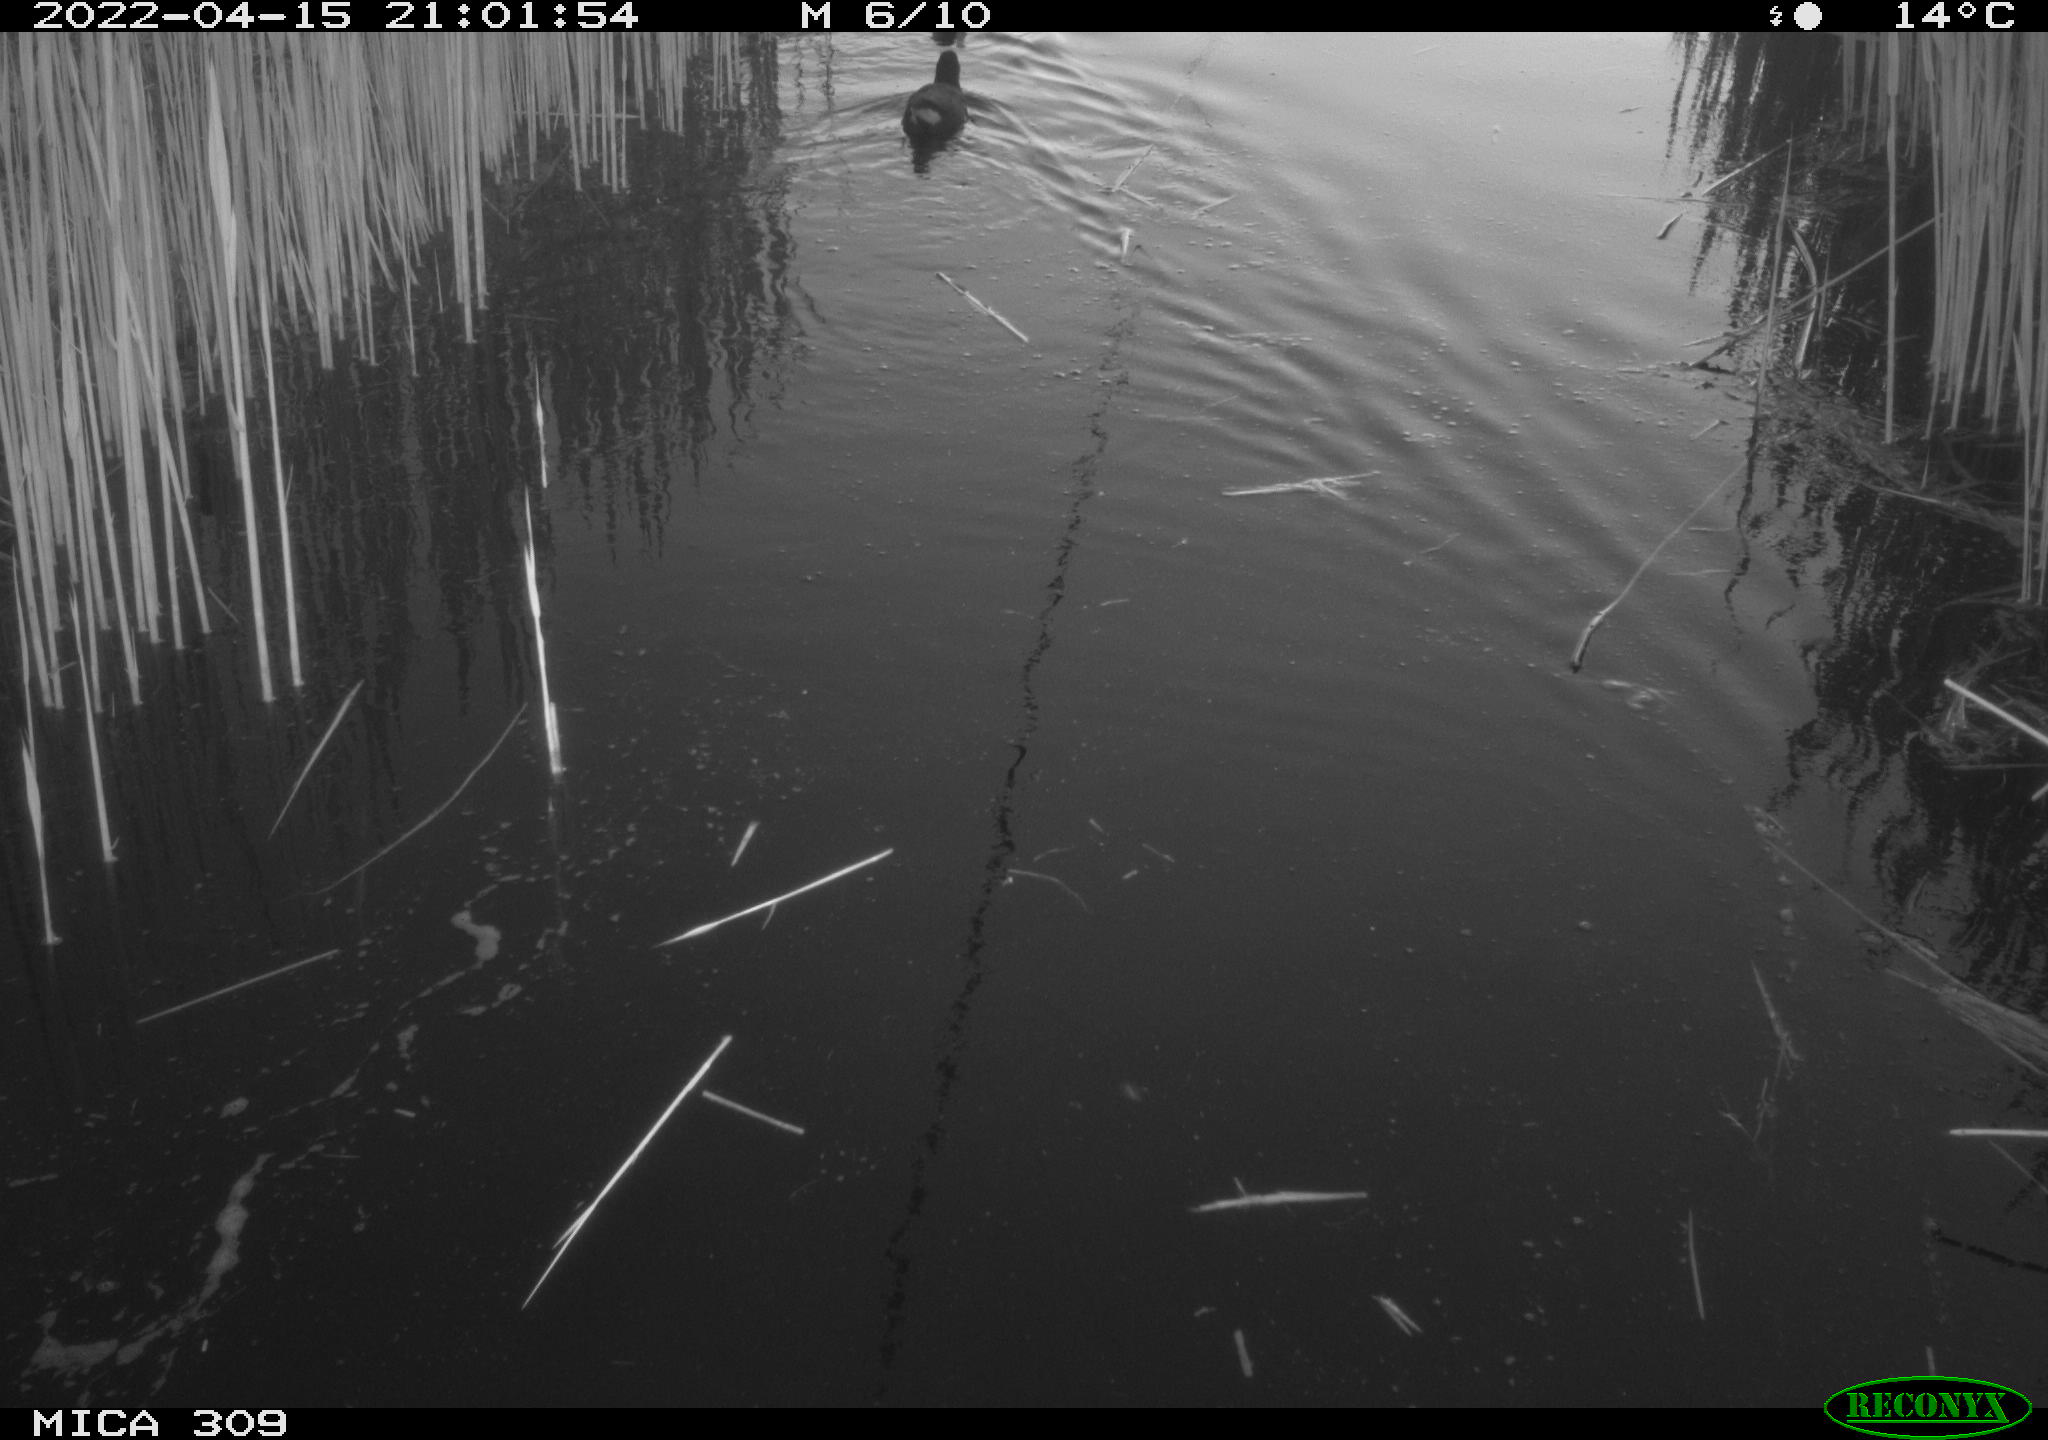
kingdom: Animalia
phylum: Chordata
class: Aves
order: Gruiformes
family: Rallidae
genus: Gallinula
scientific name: Gallinula chloropus
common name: Common moorhen
